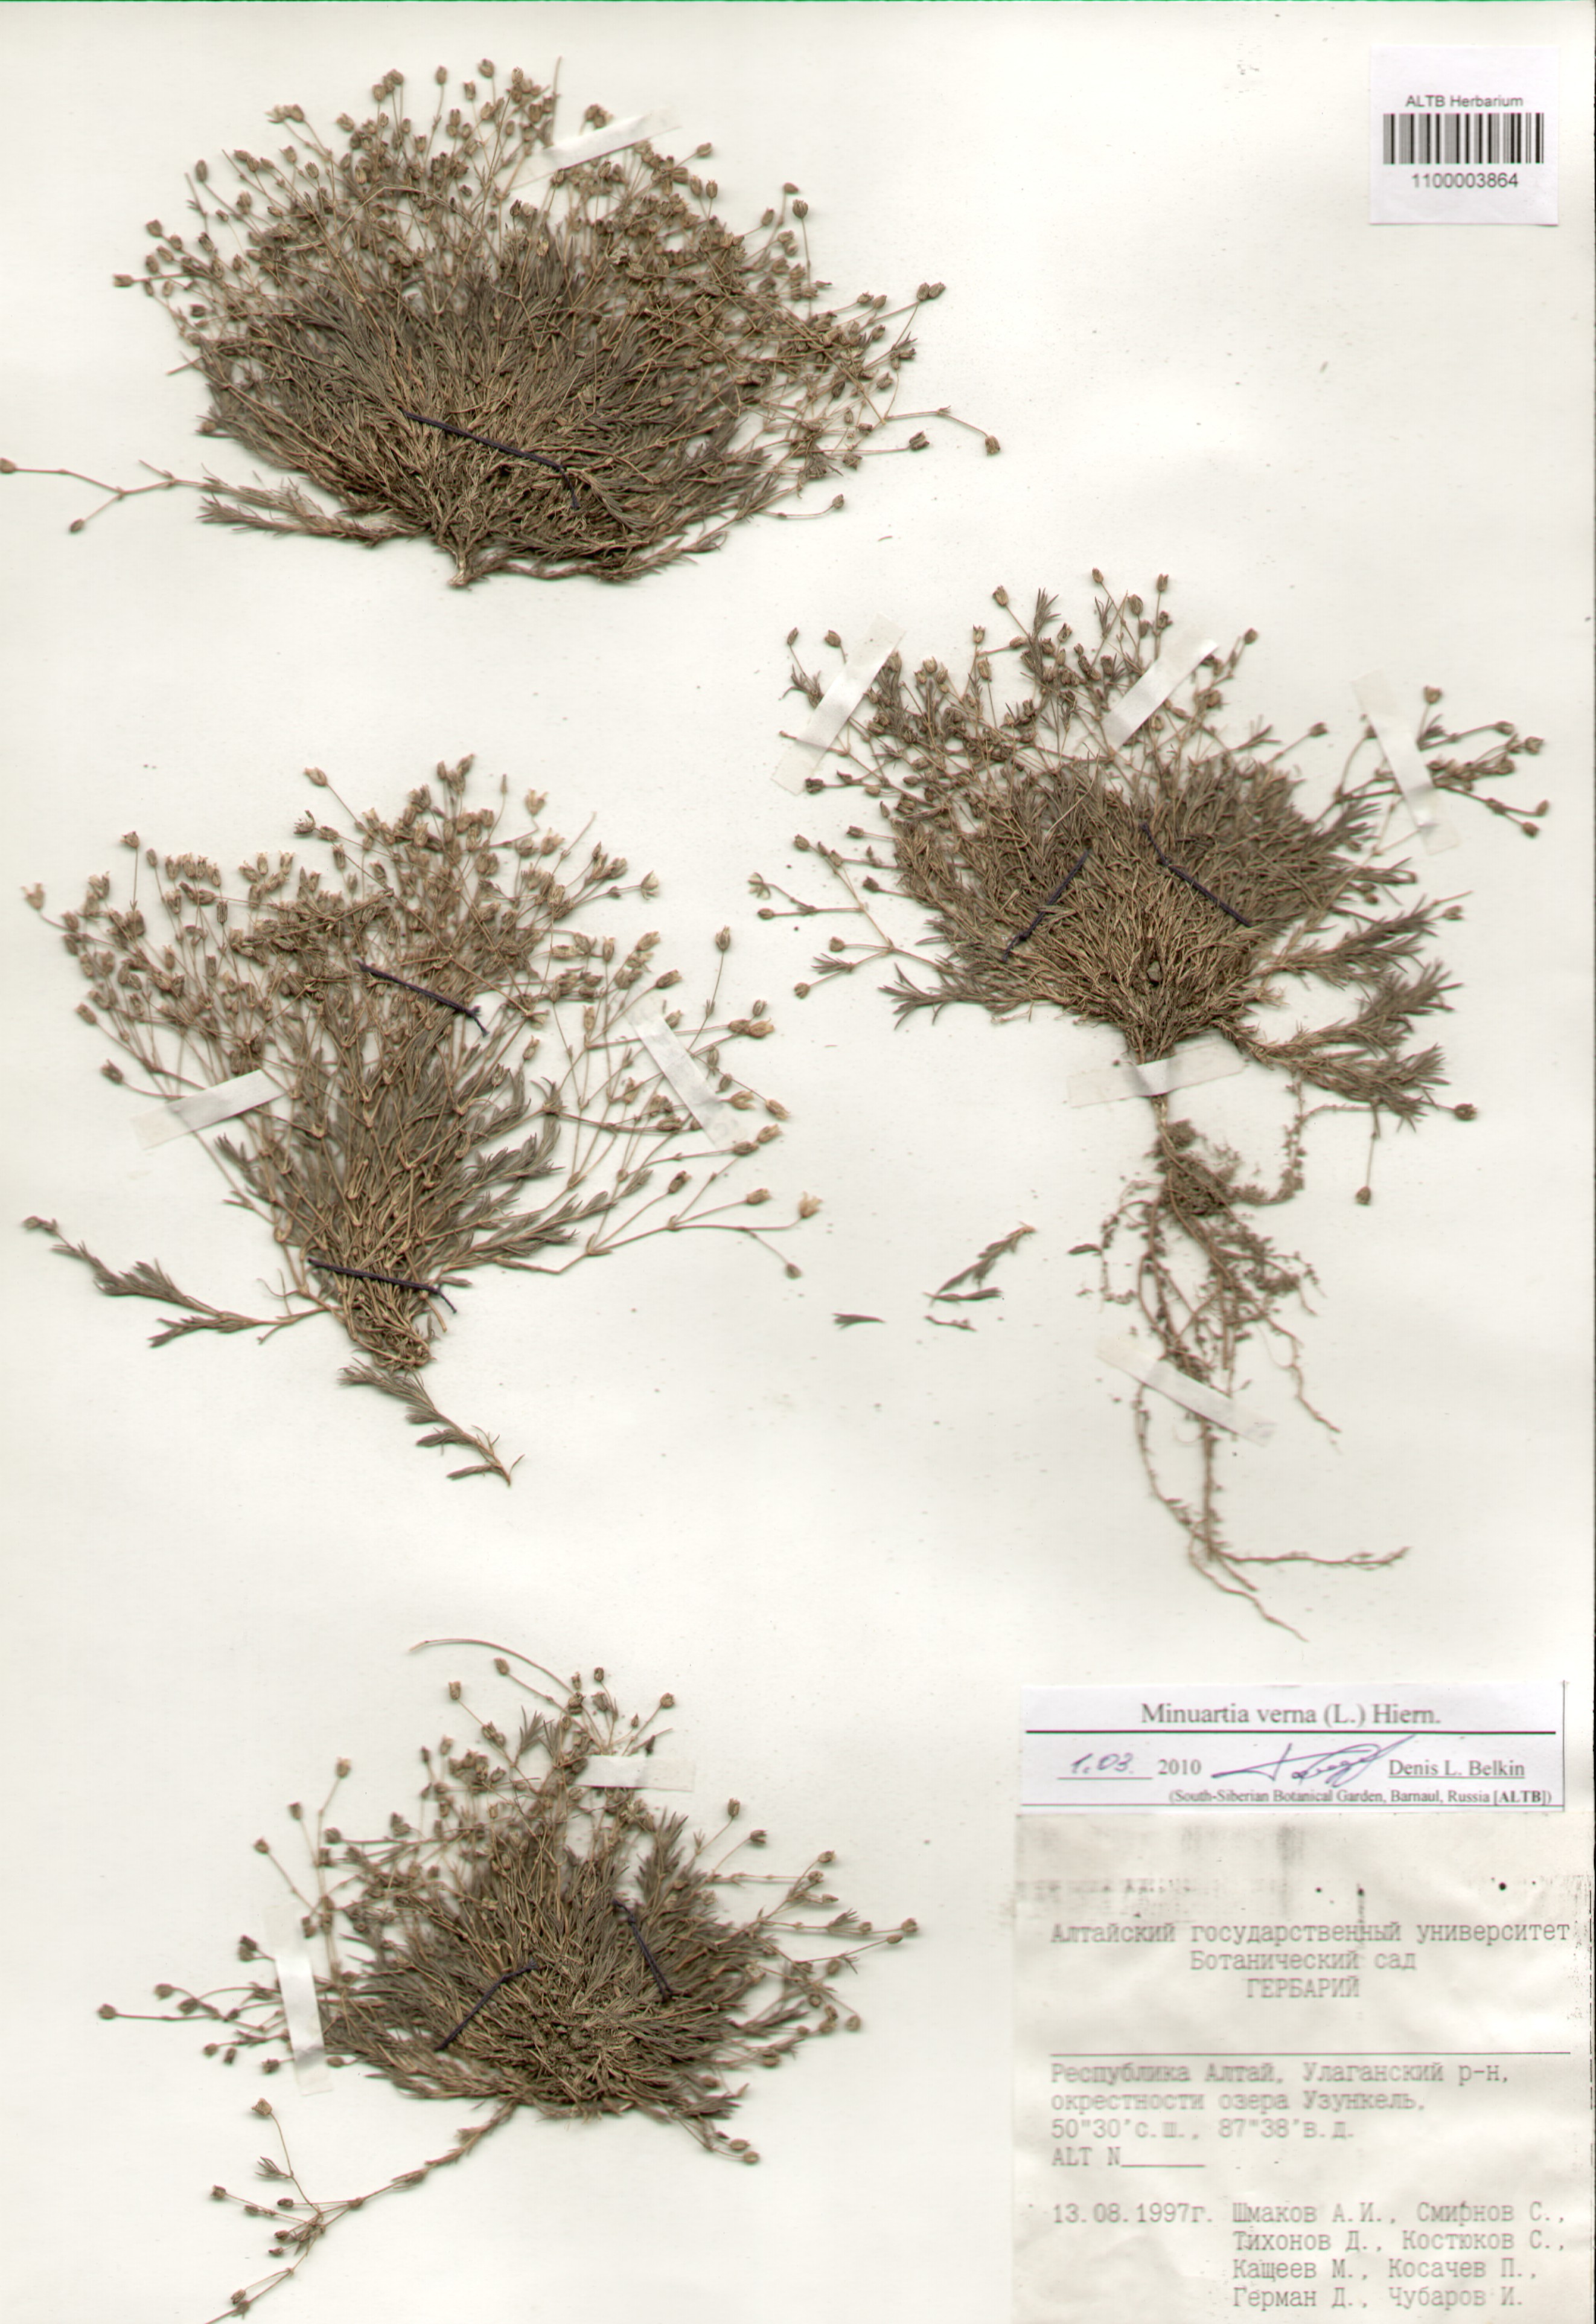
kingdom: Plantae
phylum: Tracheophyta
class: Magnoliopsida
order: Caryophyllales
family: Caryophyllaceae
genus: Sabulina
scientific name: Sabulina verna
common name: Spring sandwort
